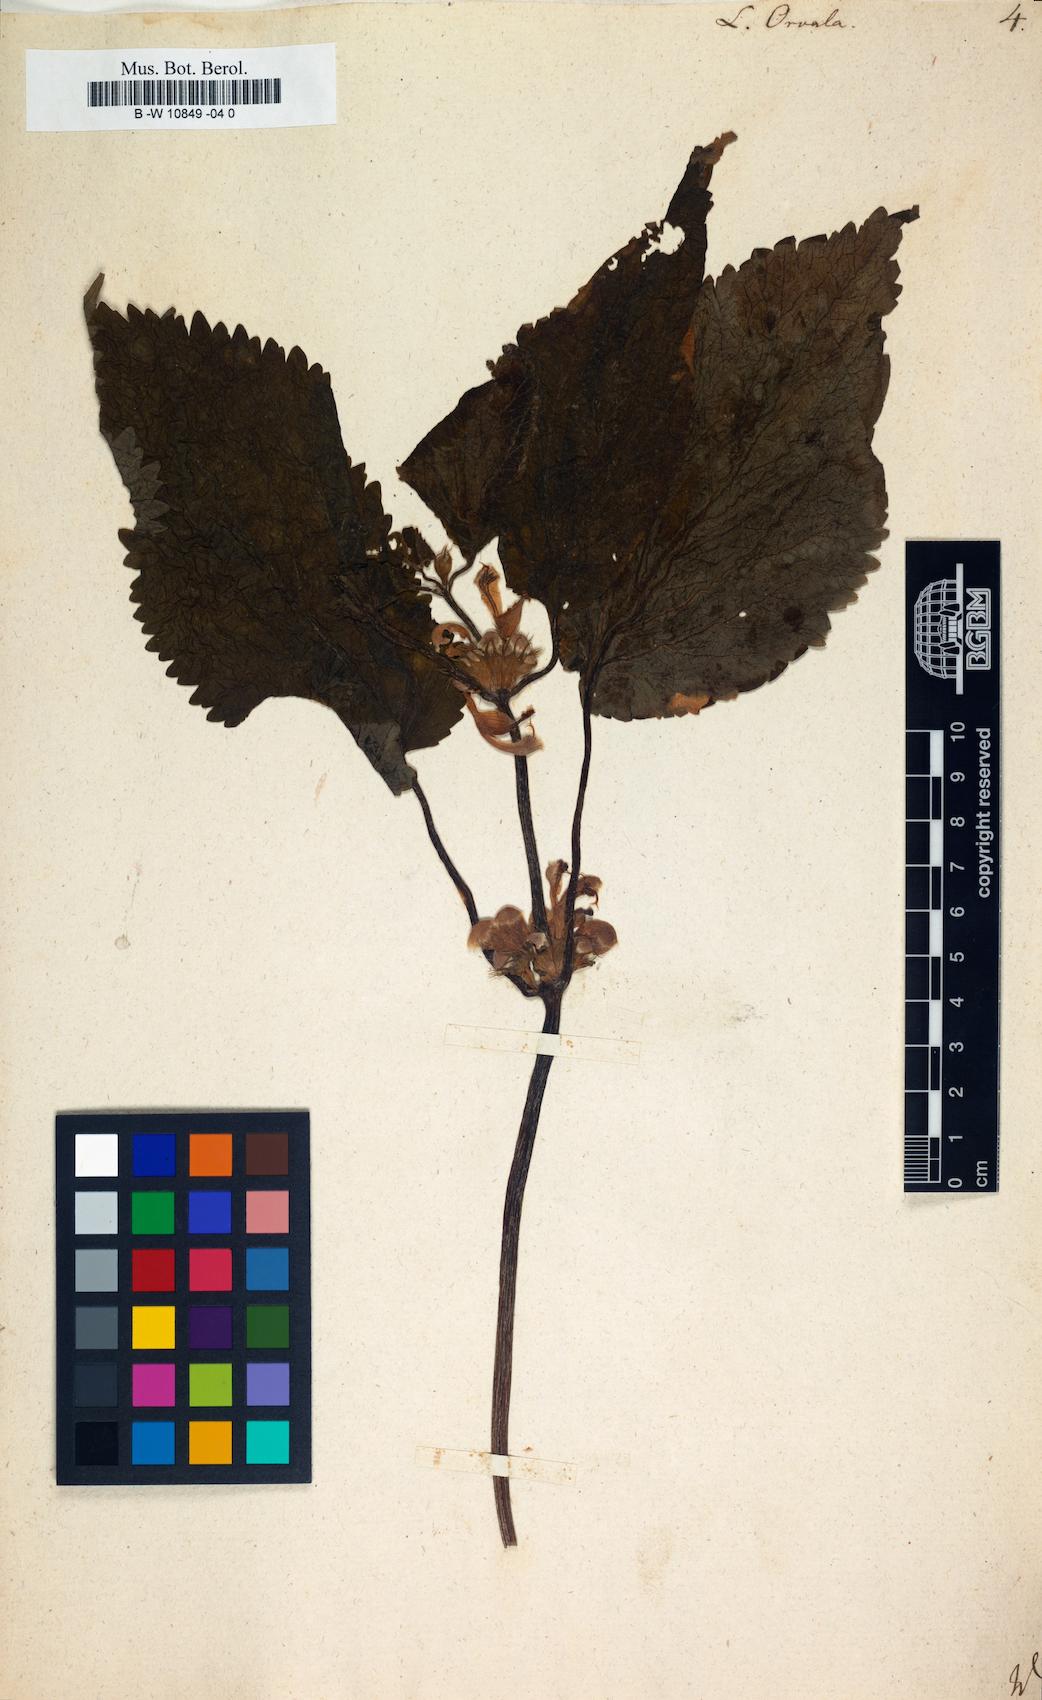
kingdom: Plantae
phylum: Tracheophyta
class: Magnoliopsida
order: Lamiales
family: Lamiaceae
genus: Lamium
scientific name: Lamium orvala
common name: Balm-leaved archangel
